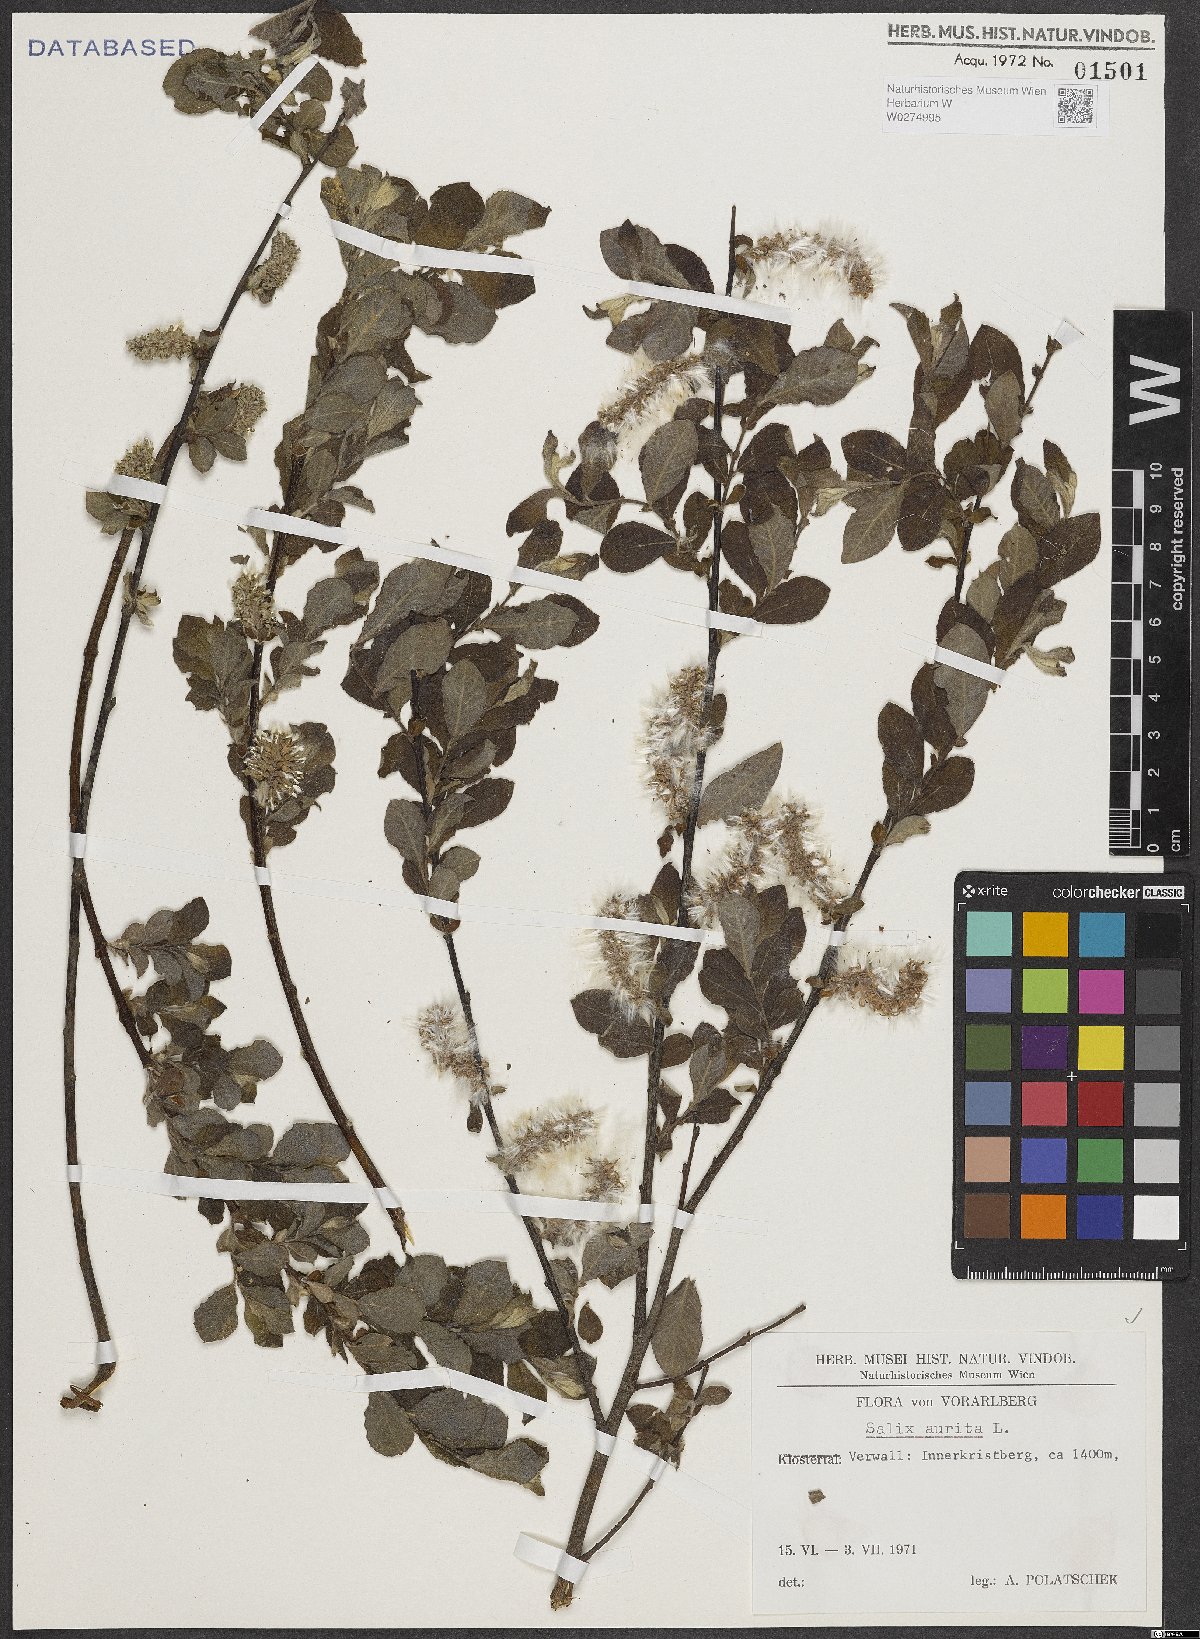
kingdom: Plantae
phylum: Tracheophyta
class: Magnoliopsida
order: Malpighiales
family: Salicaceae
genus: Salix
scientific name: Salix aurita
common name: Eared willow
